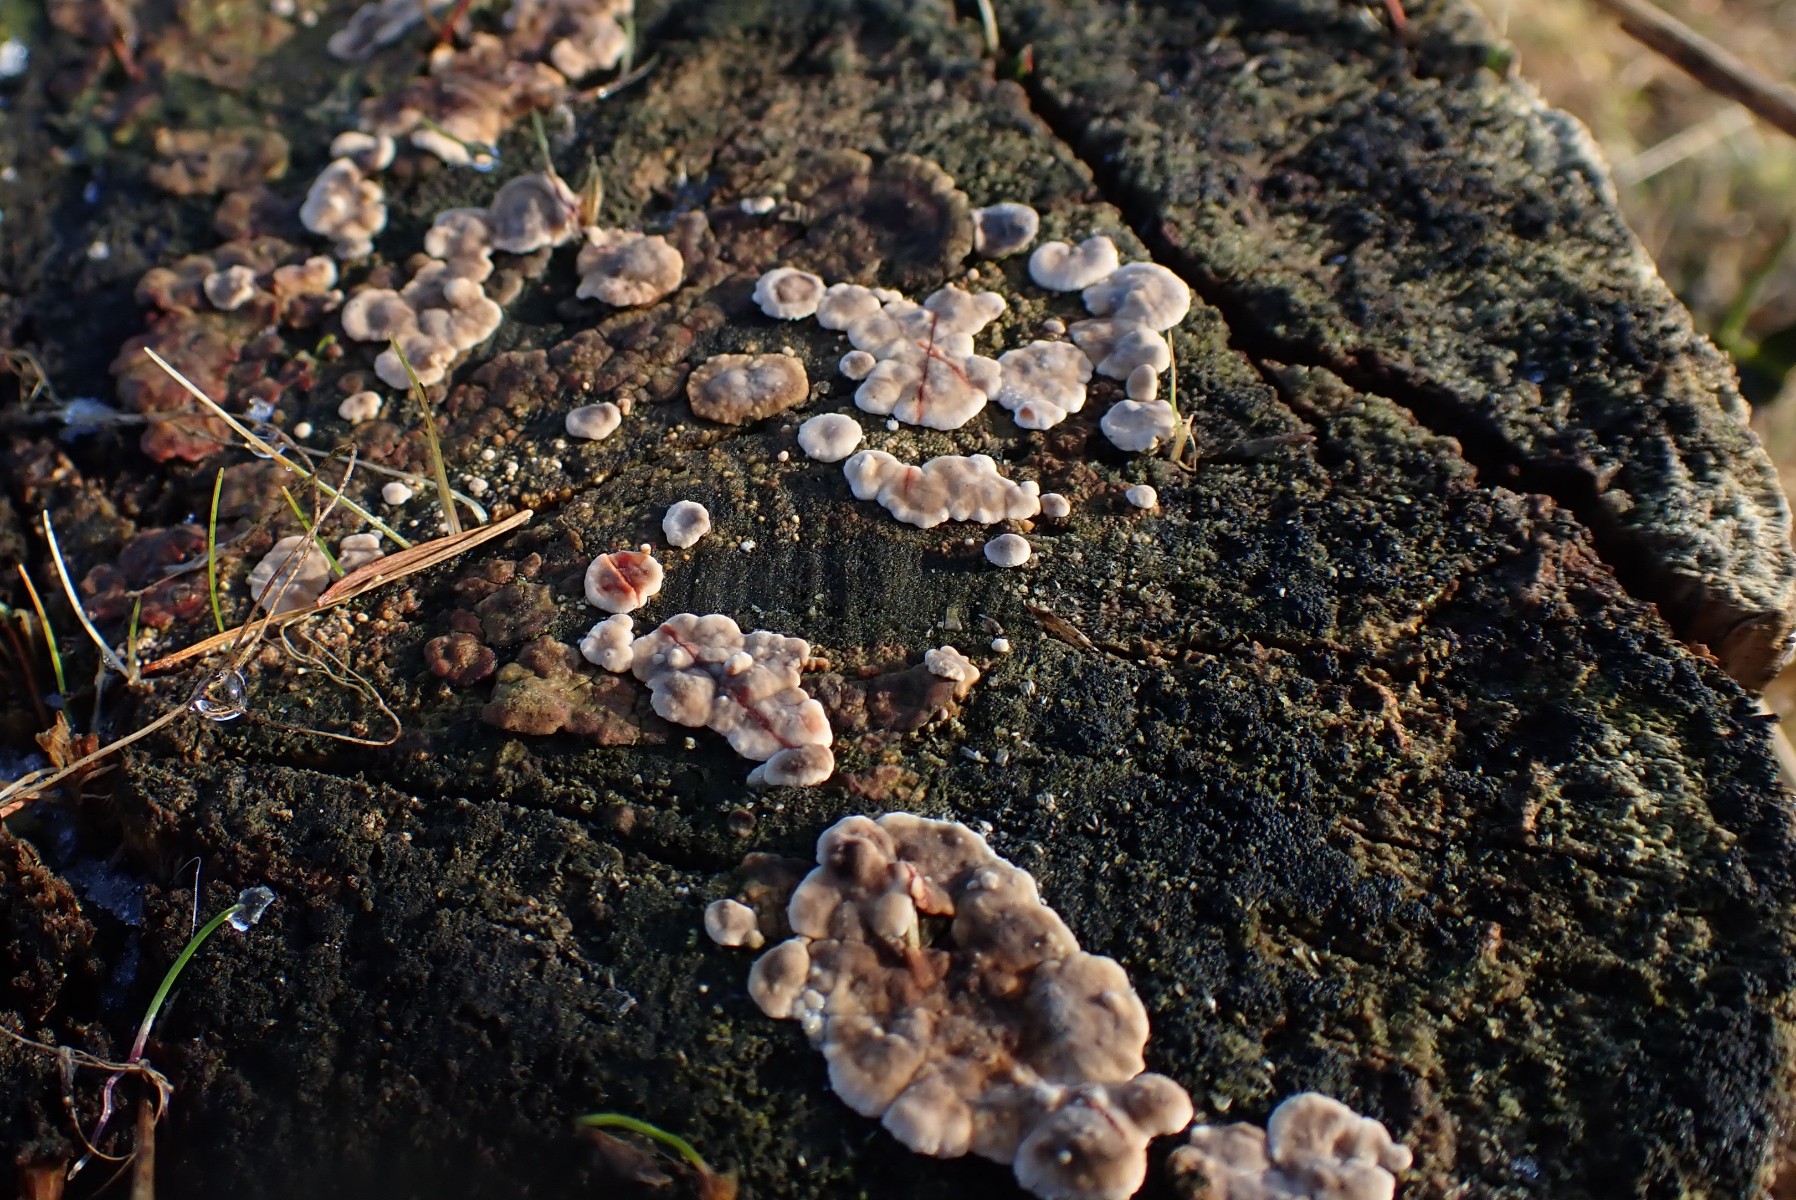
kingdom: Fungi
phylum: Basidiomycota
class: Agaricomycetes
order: Russulales
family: Stereaceae
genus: Stereum
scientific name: Stereum sanguinolentum
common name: blødende lædersvamp
